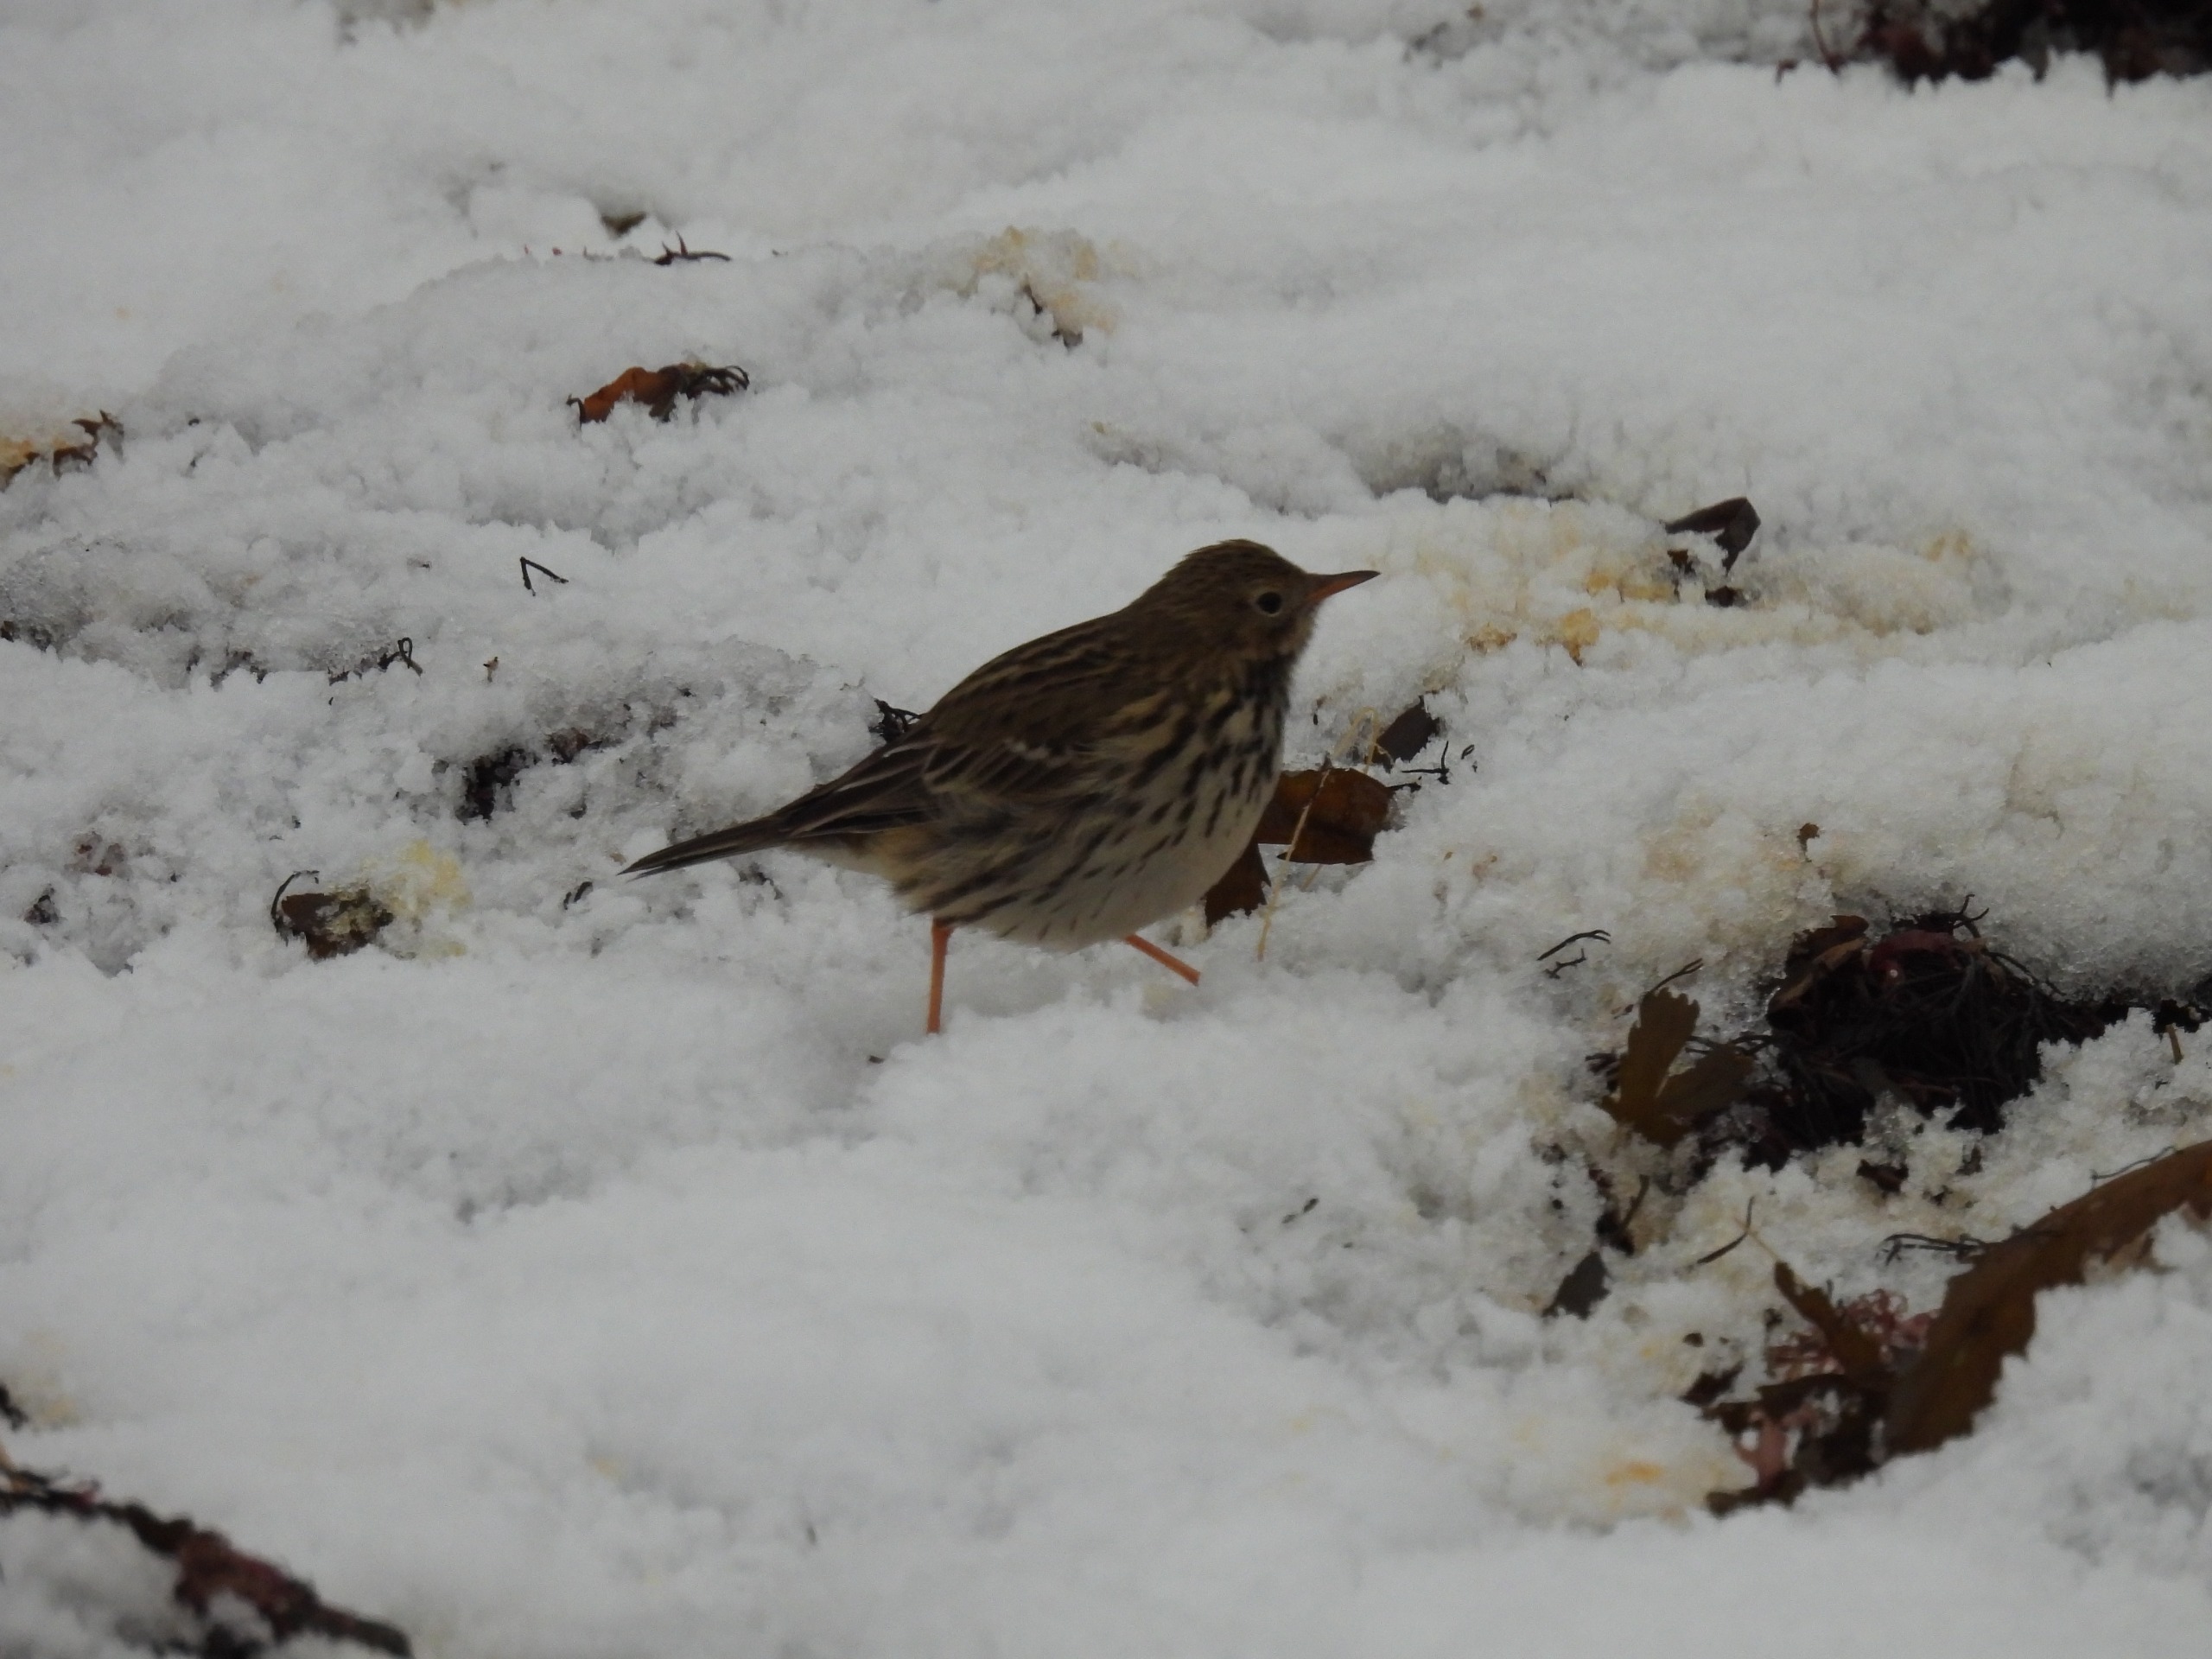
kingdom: Animalia
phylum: Chordata
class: Aves
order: Passeriformes
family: Motacillidae
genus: Anthus
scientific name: Anthus pratensis
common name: Engpiber
